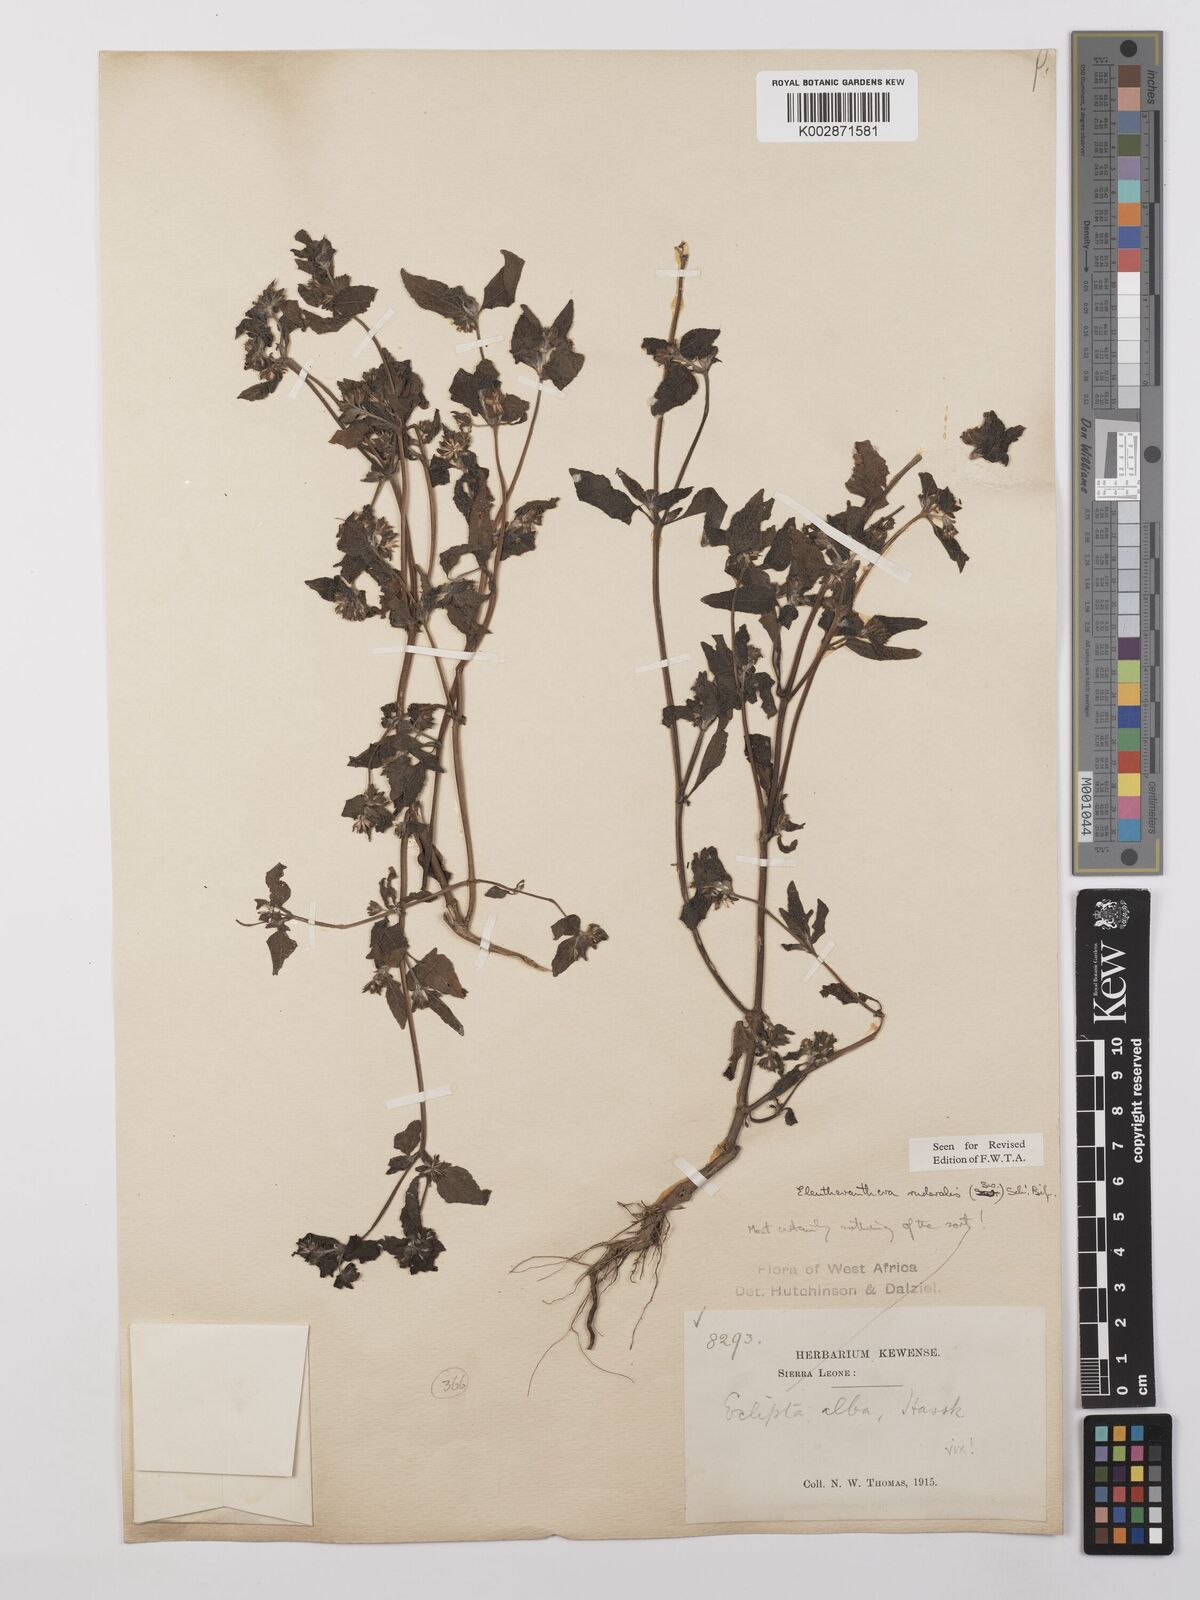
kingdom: Plantae
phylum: Tracheophyta
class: Magnoliopsida
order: Asterales
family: Asteraceae
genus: Eleutheranthera
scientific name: Eleutheranthera ruderalis
